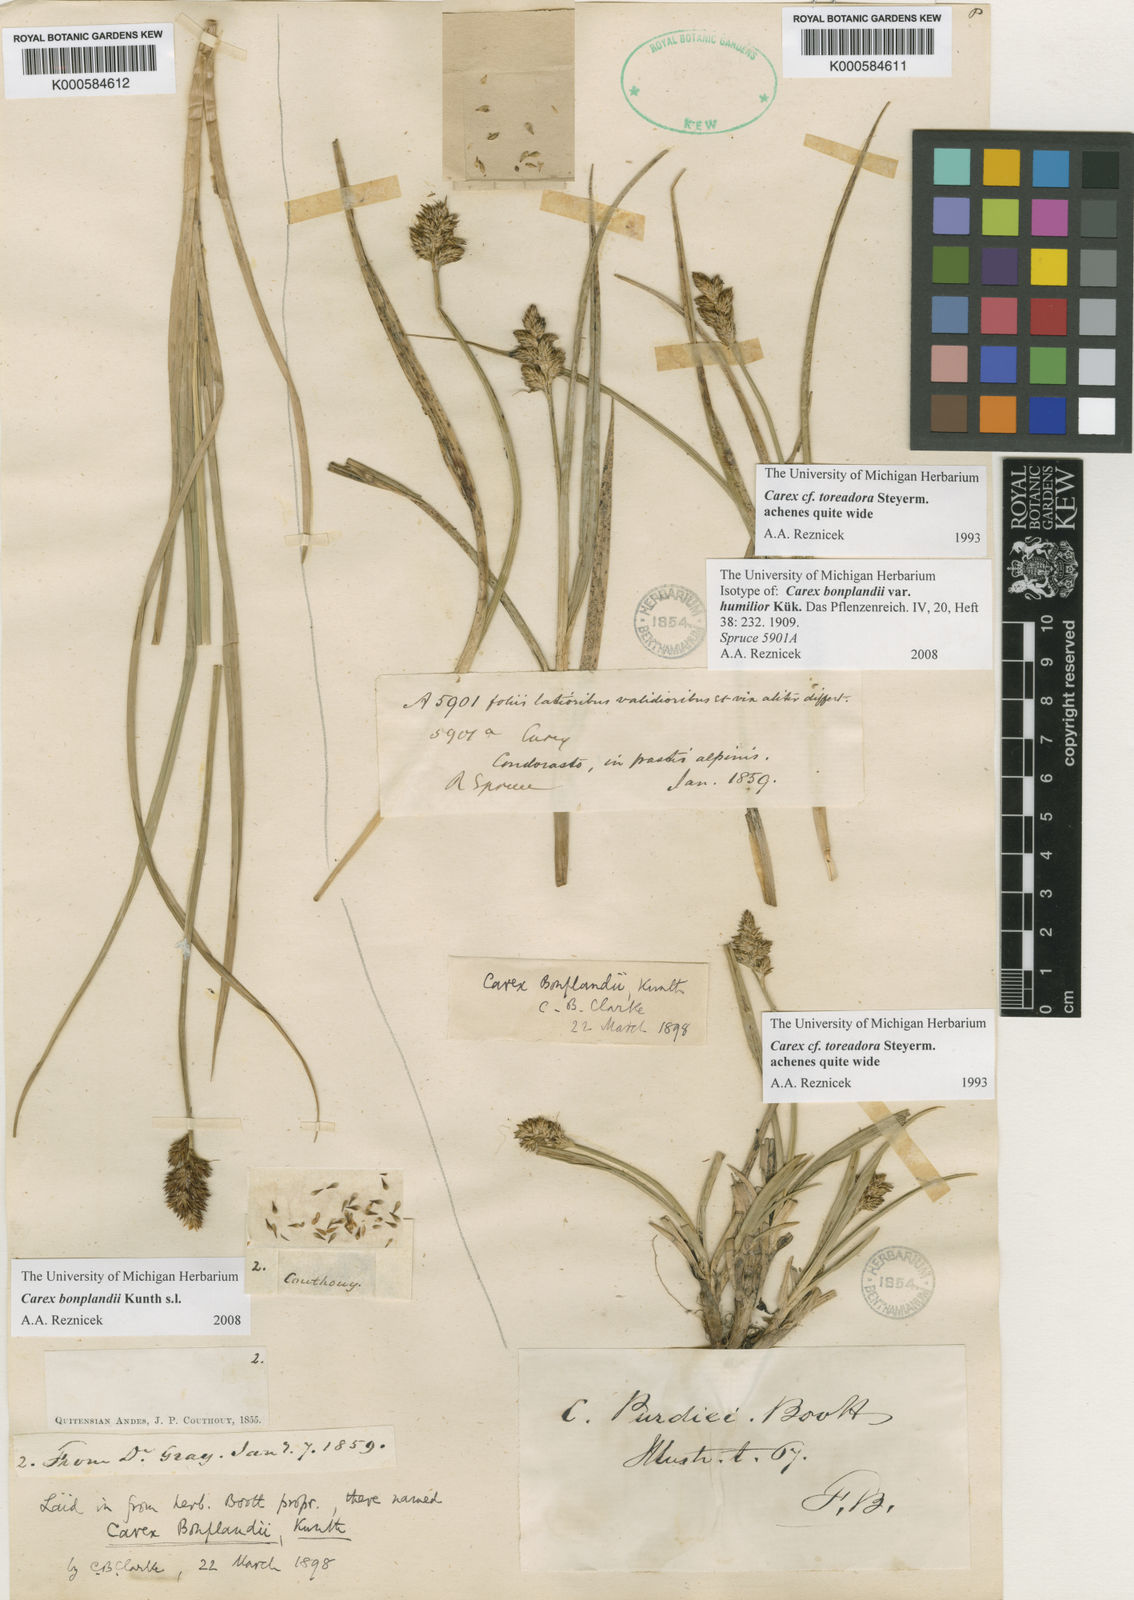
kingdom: Plantae
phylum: Tracheophyta
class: Liliopsida
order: Poales
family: Cyperaceae
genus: Carex
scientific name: Carex bonplandii
